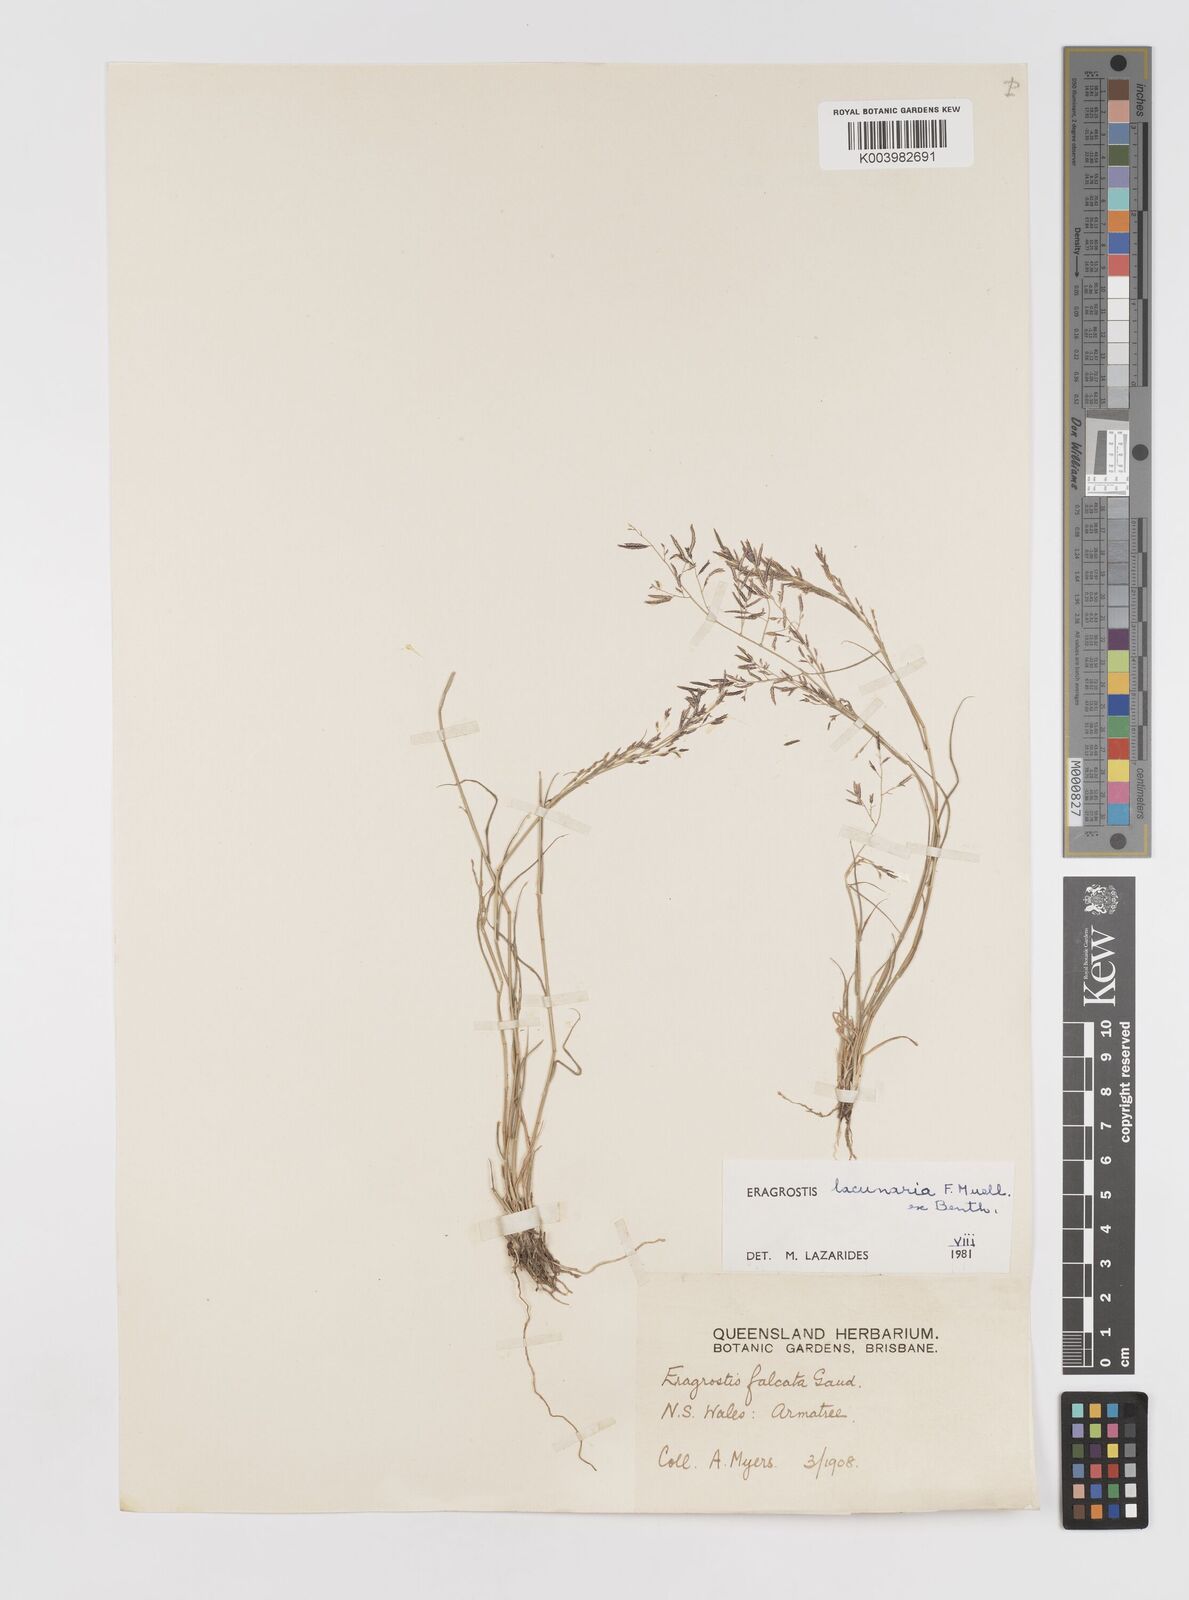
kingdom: Plantae
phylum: Tracheophyta
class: Liliopsida
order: Poales
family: Poaceae
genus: Eragrostis
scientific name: Eragrostis lacunaria
